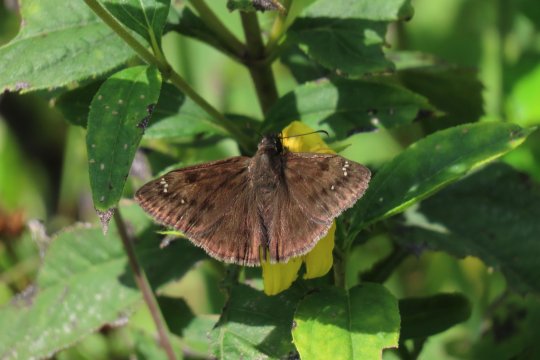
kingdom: Animalia
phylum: Arthropoda
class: Insecta
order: Lepidoptera
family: Hesperiidae
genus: Gesta
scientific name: Gesta
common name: Horace's Duskywing
